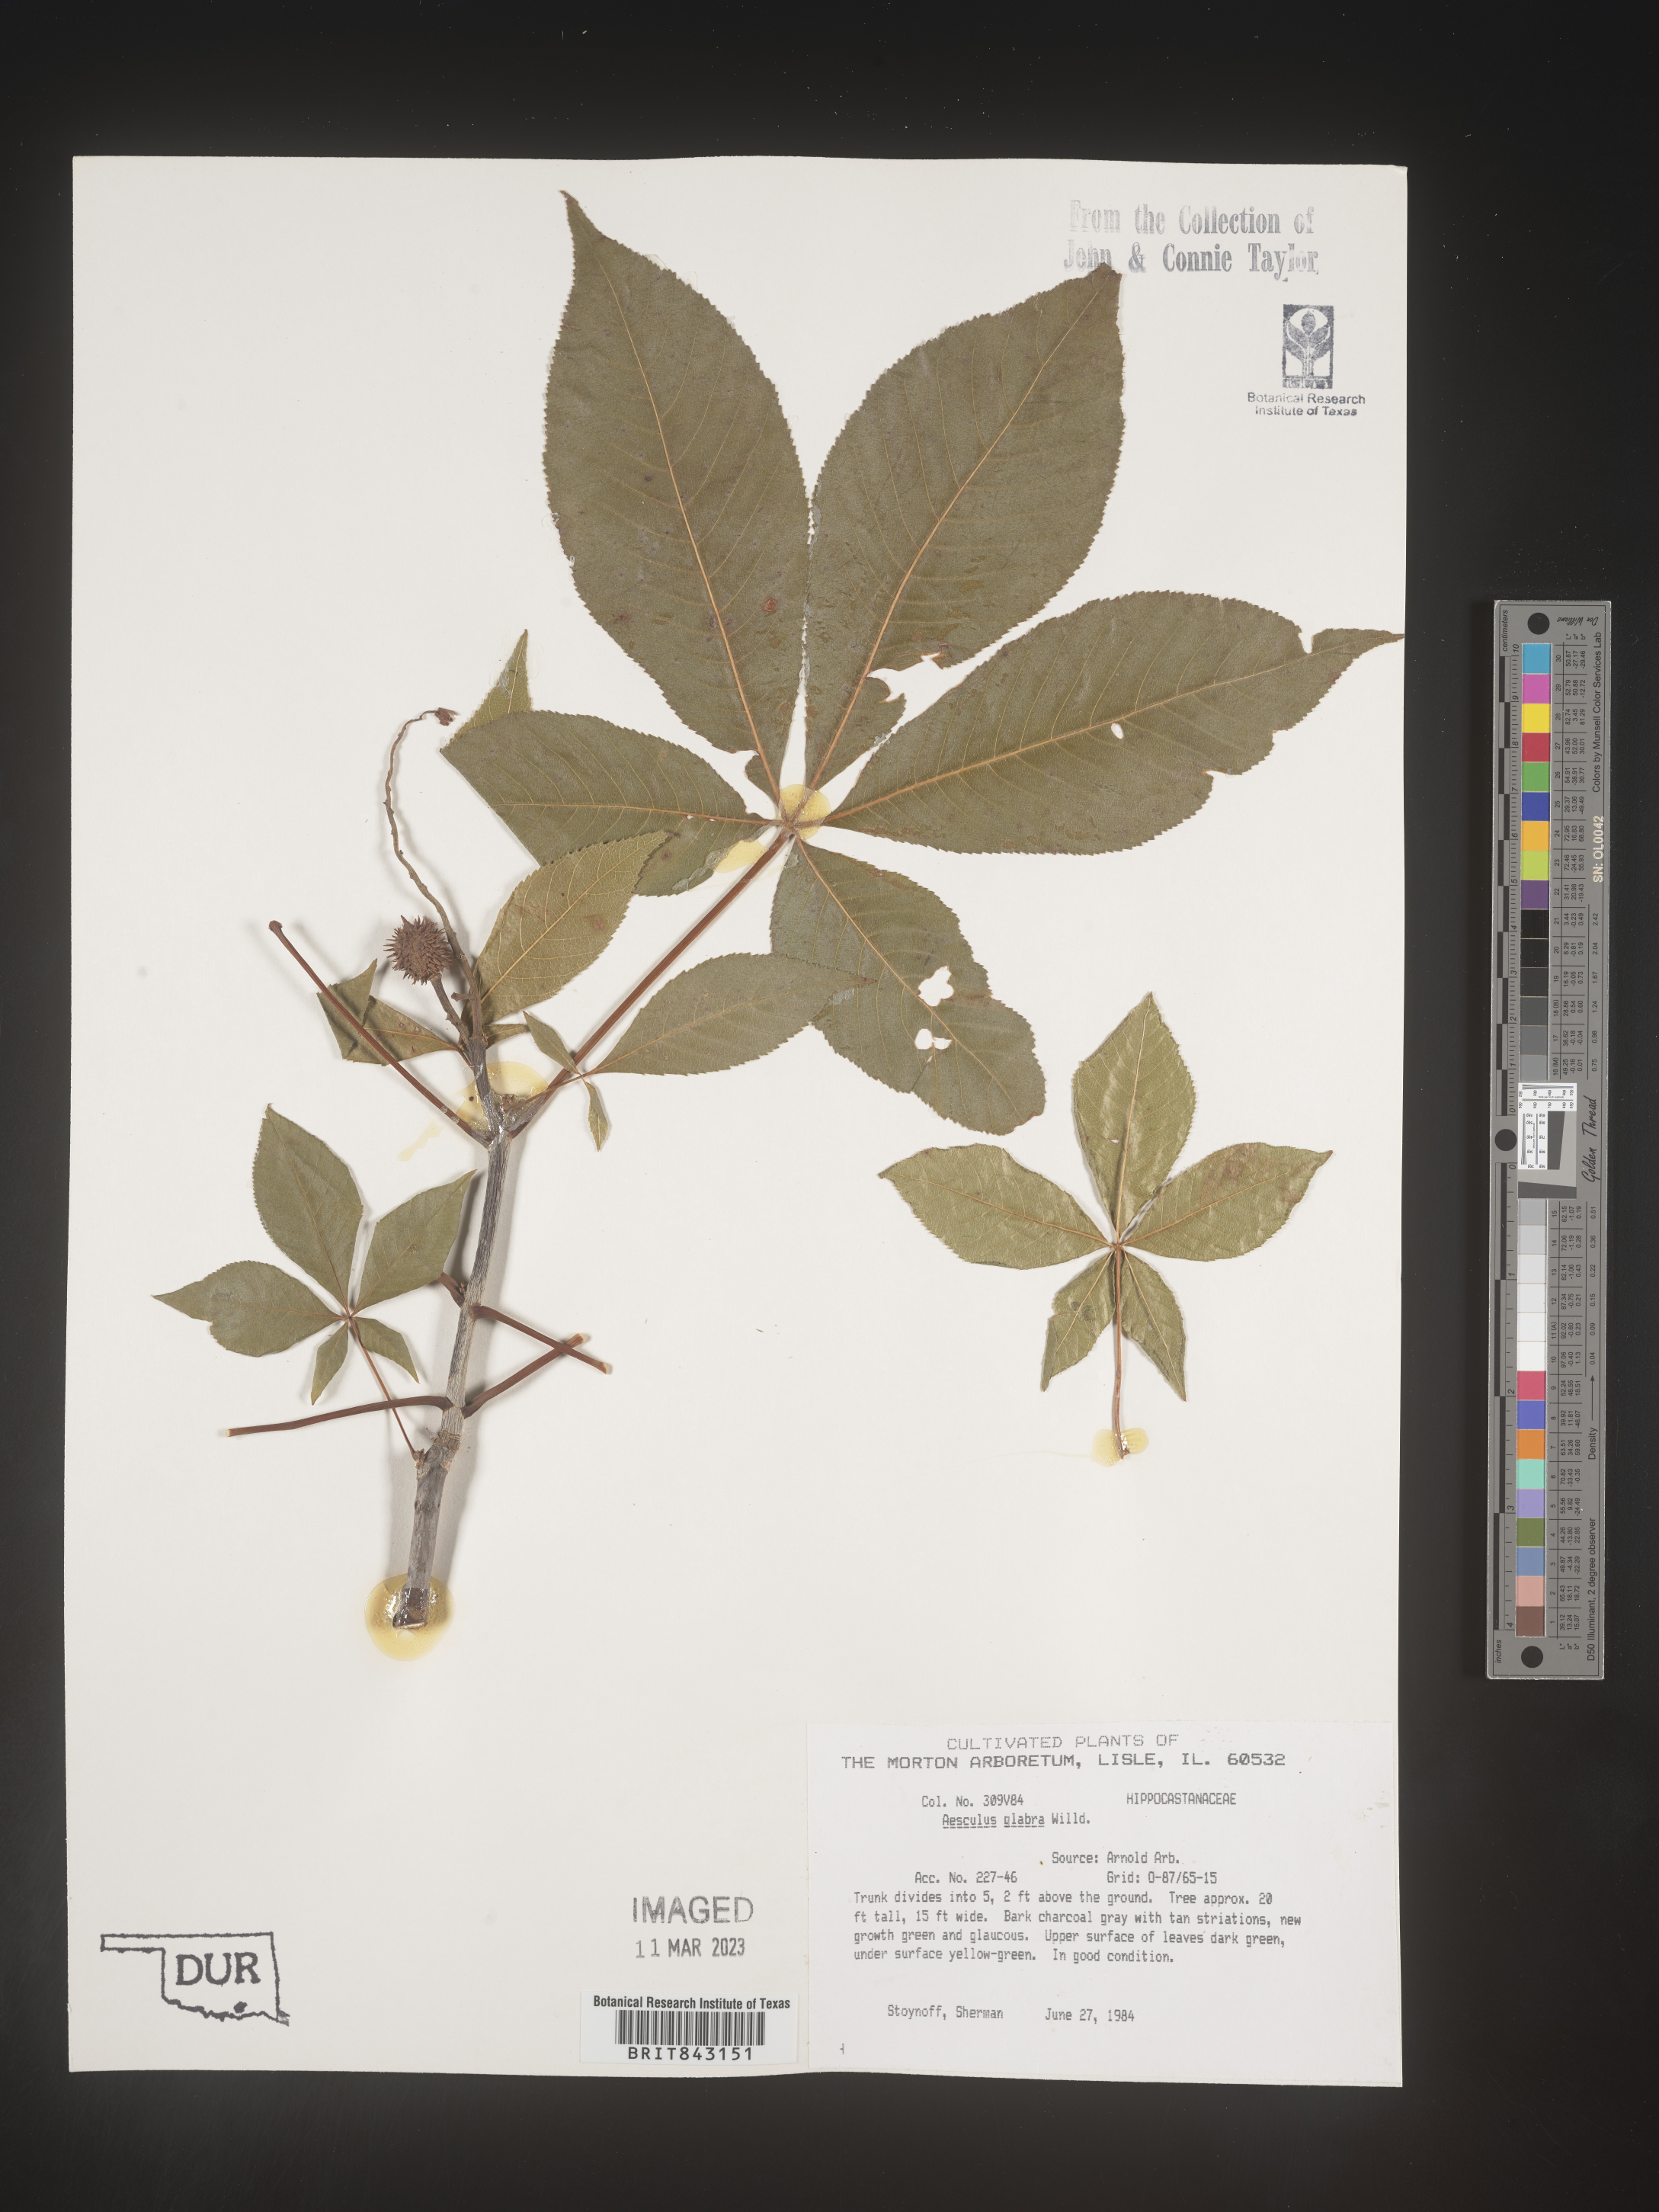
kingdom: Plantae
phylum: Tracheophyta
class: Magnoliopsida
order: Sapindales
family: Sapindaceae
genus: Aesculus
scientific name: Aesculus glabra
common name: Ohio buckeye
